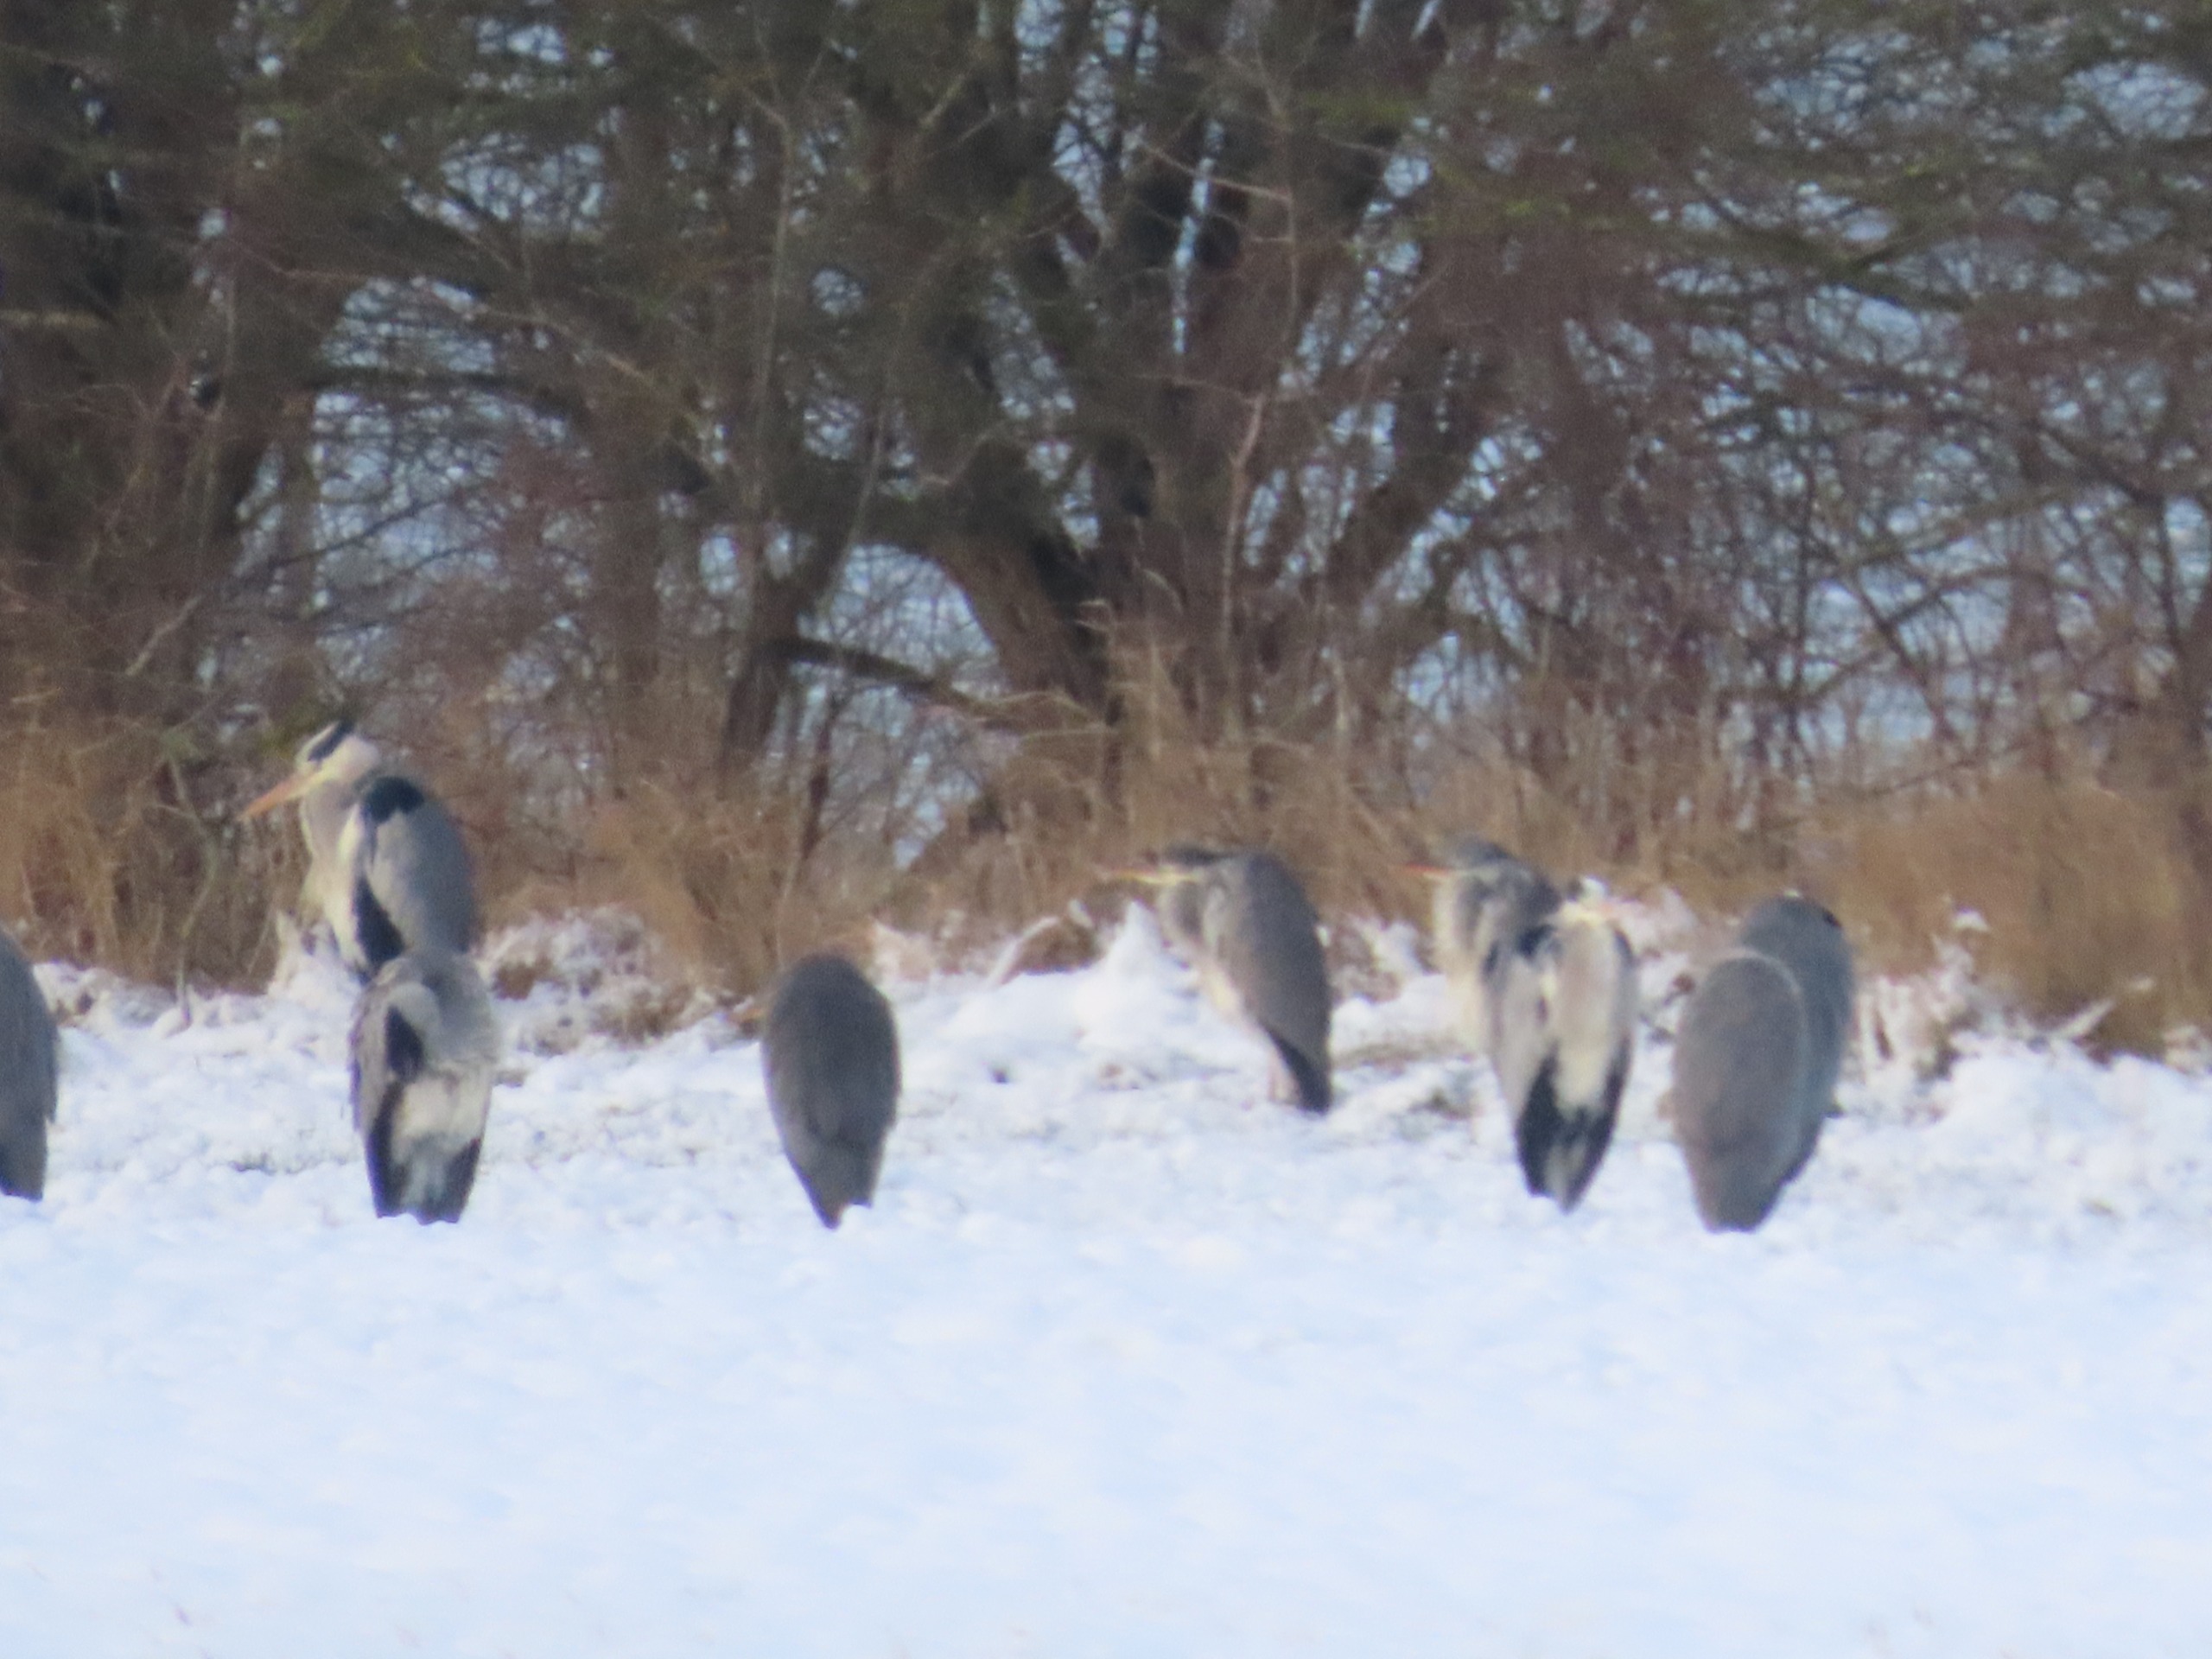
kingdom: Animalia
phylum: Chordata
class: Aves
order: Pelecaniformes
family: Ardeidae
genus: Ardea
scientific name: Ardea cinerea
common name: Fiskehejre
